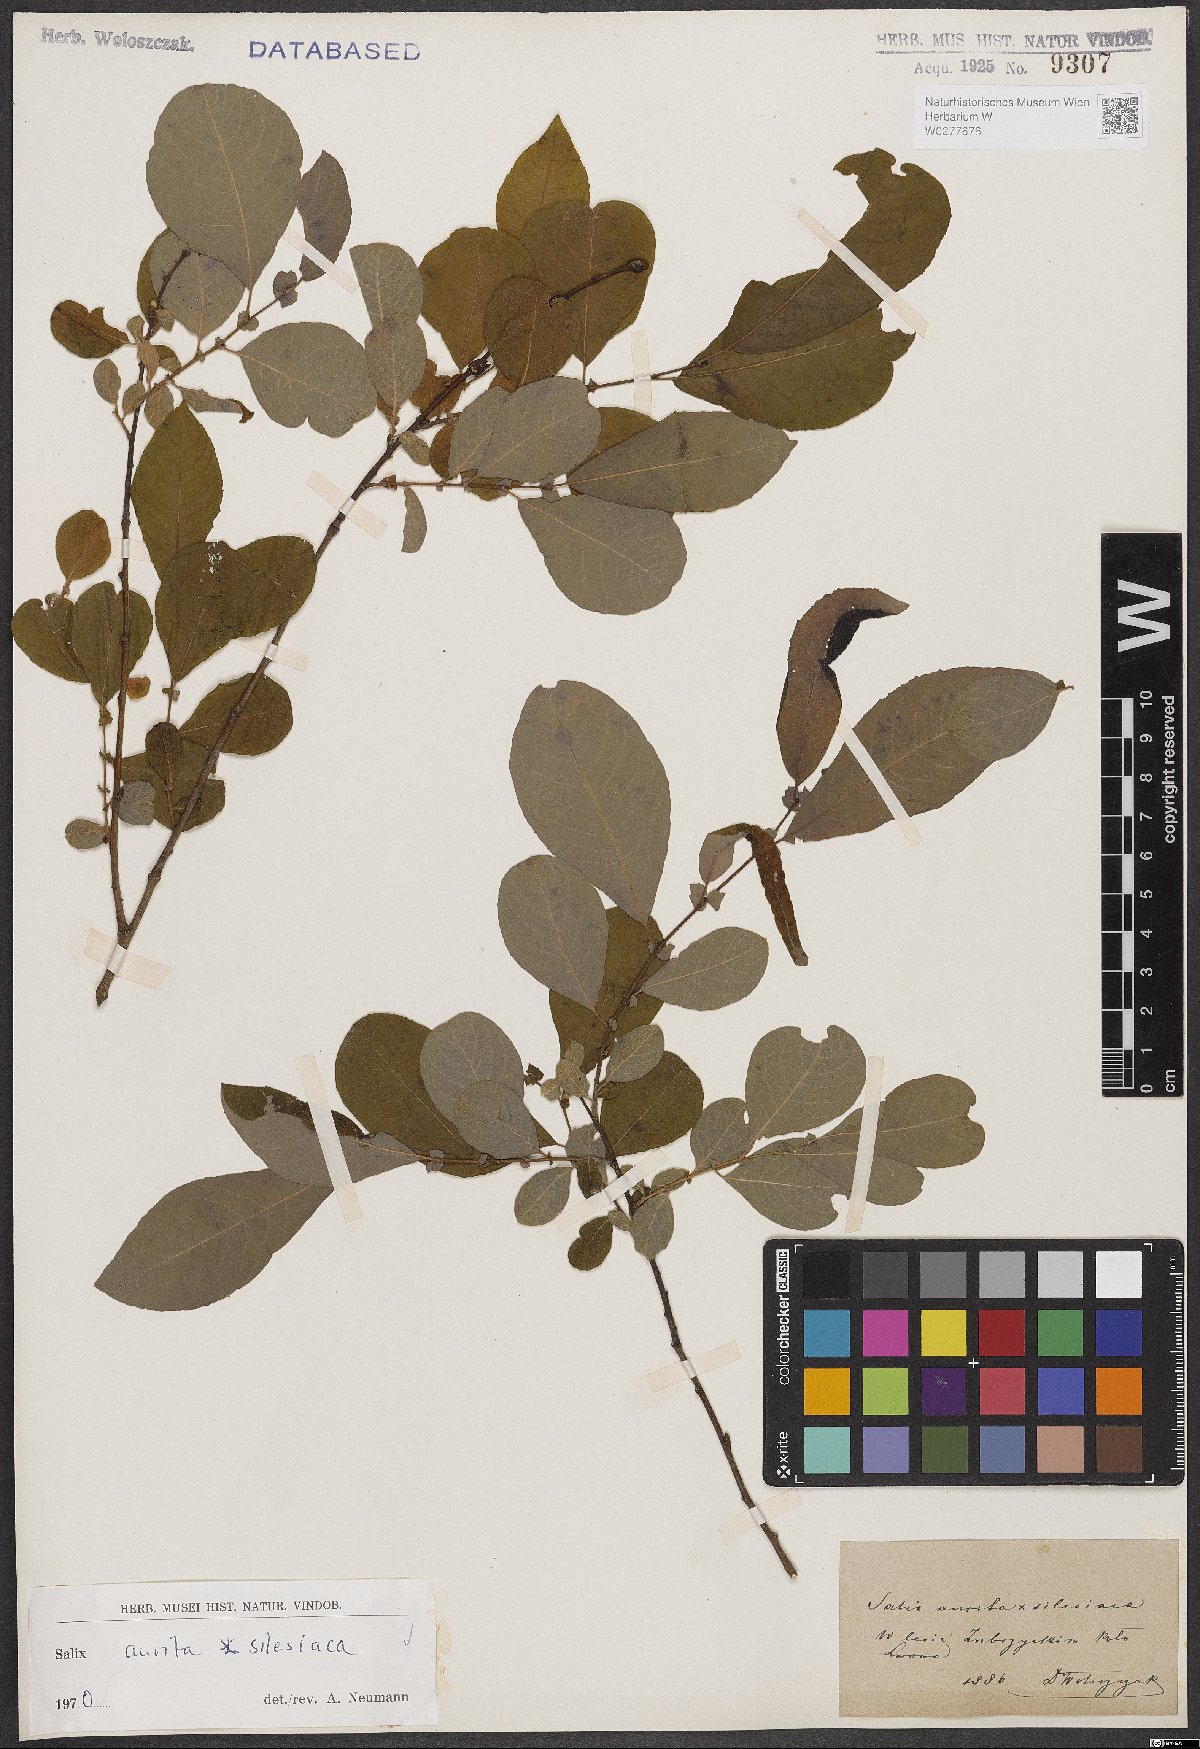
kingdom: Plantae
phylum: Tracheophyta
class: Magnoliopsida
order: Malpighiales
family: Salicaceae
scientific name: Salicaceae
